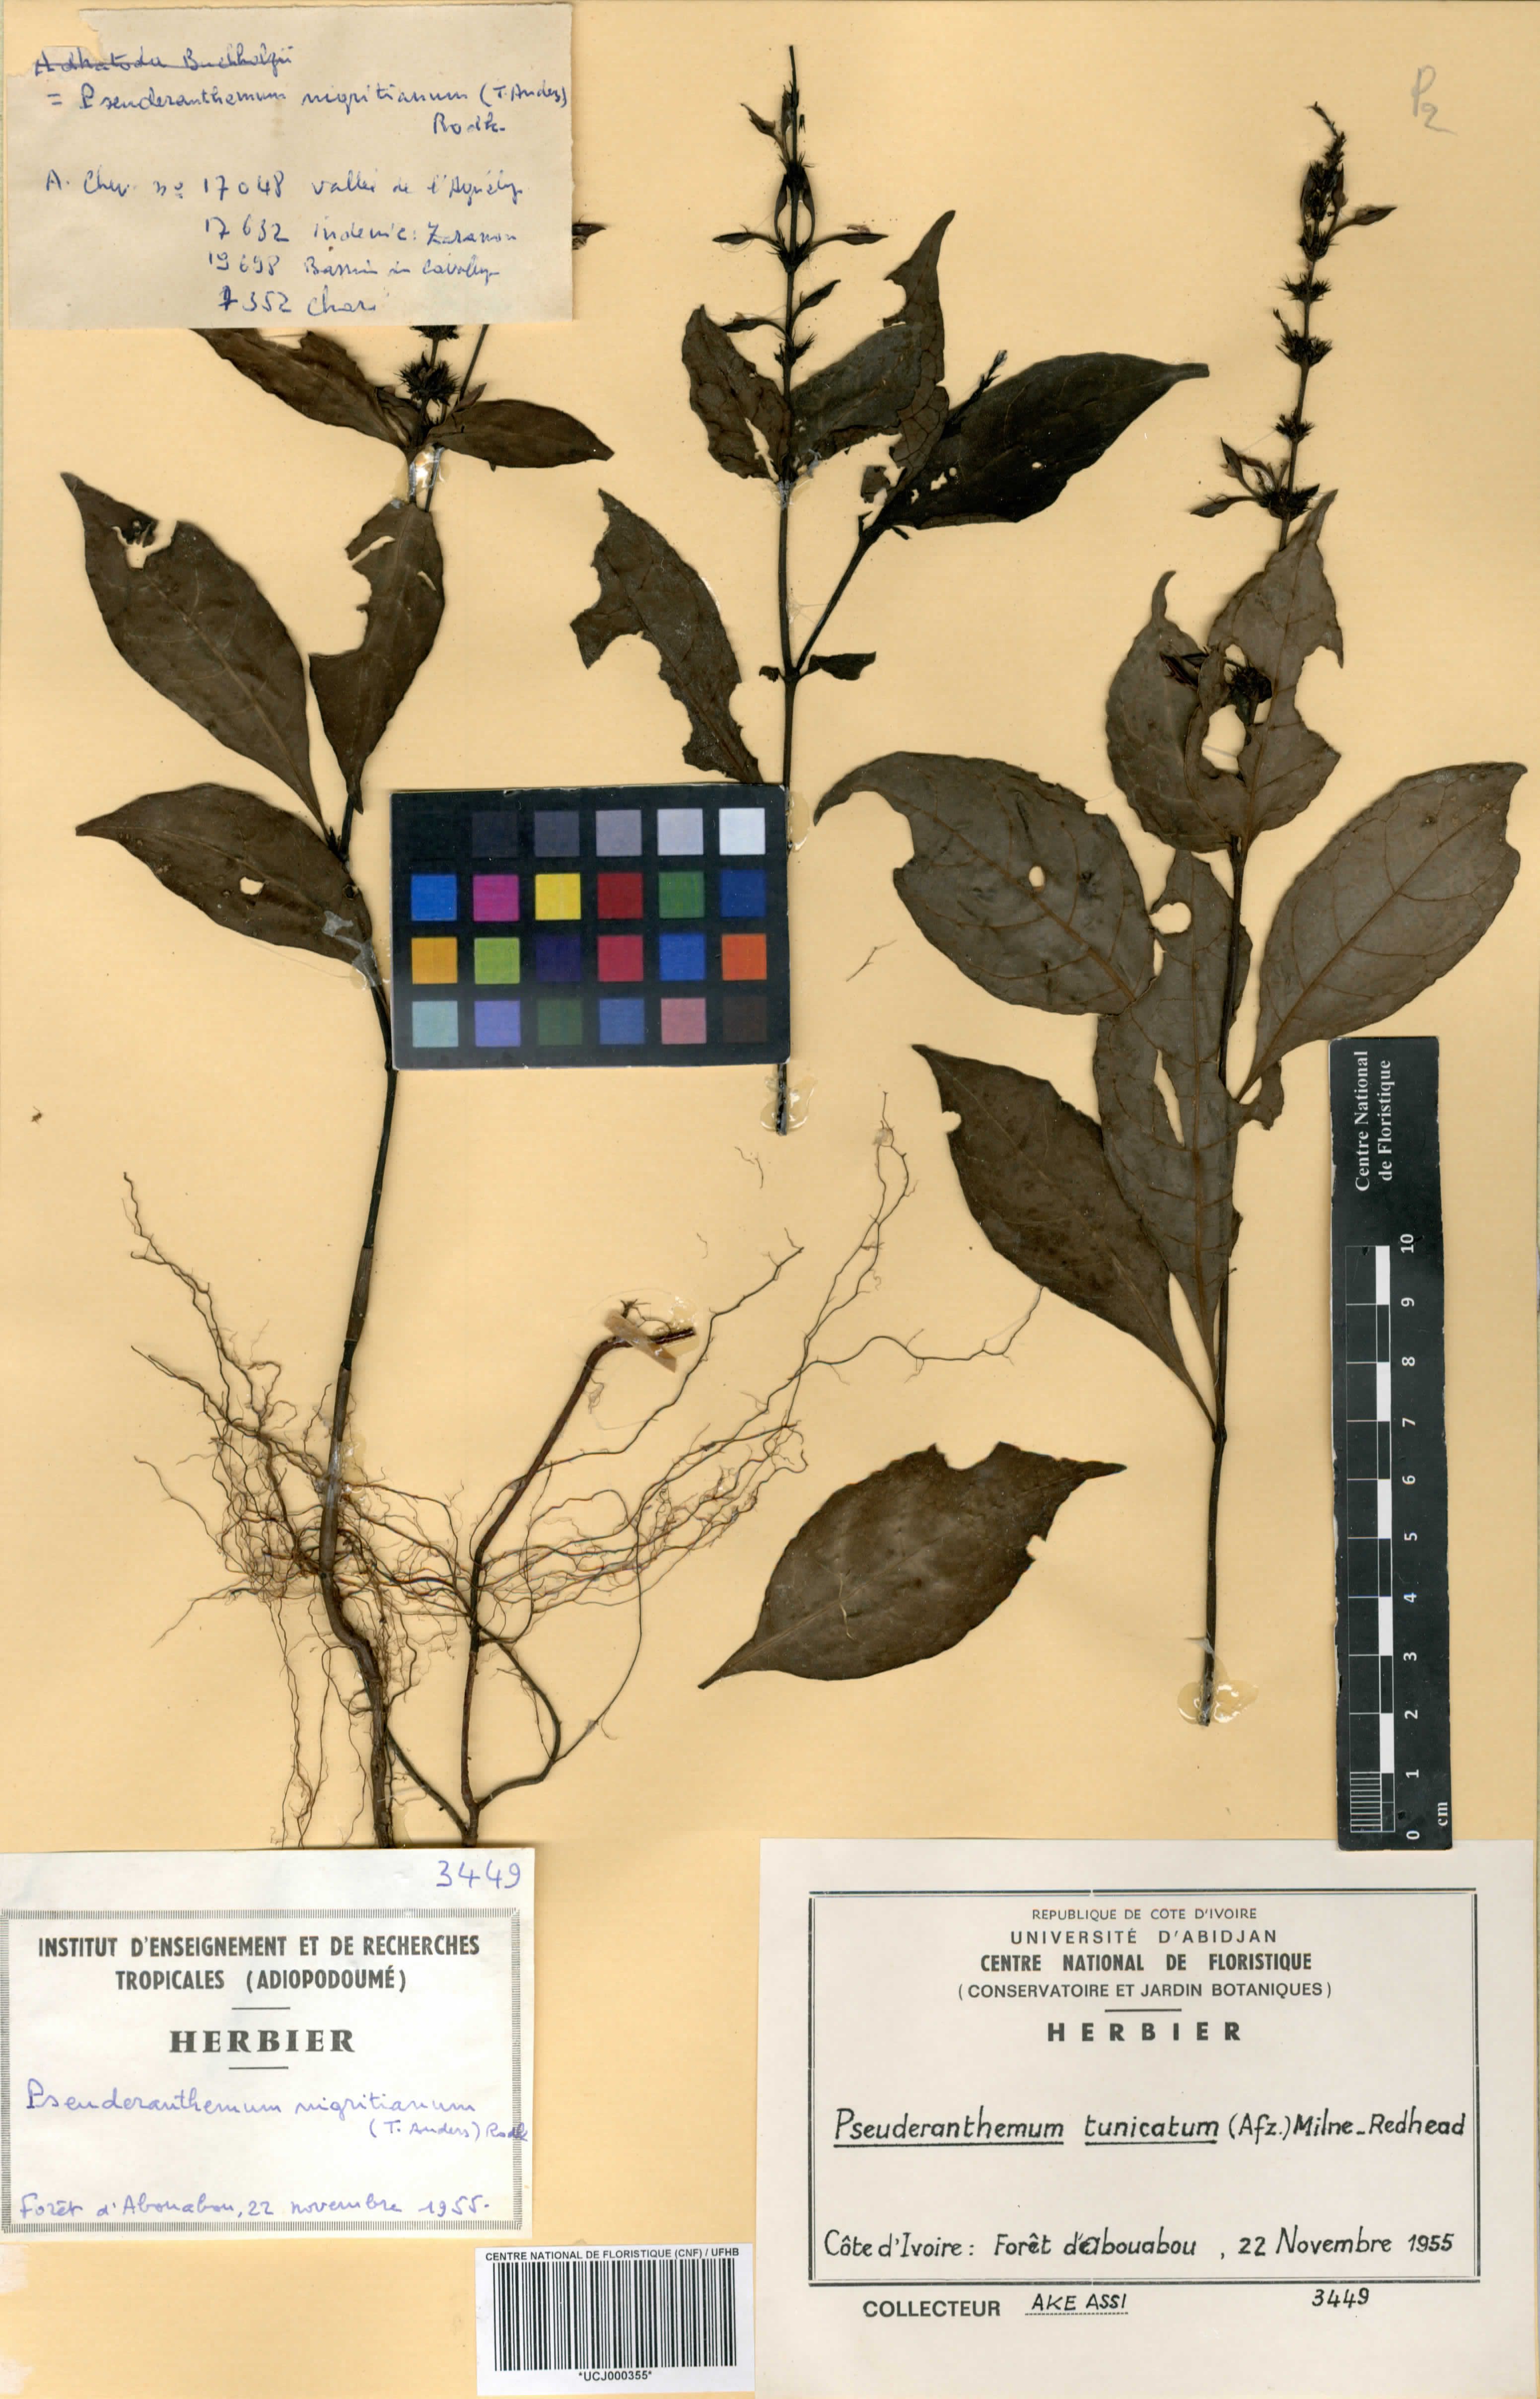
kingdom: Plantae
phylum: Tracheophyta
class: Magnoliopsida
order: Lamiales
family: Acanthaceae
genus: Pseuderanthemum
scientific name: Pseuderanthemum tunicatum
